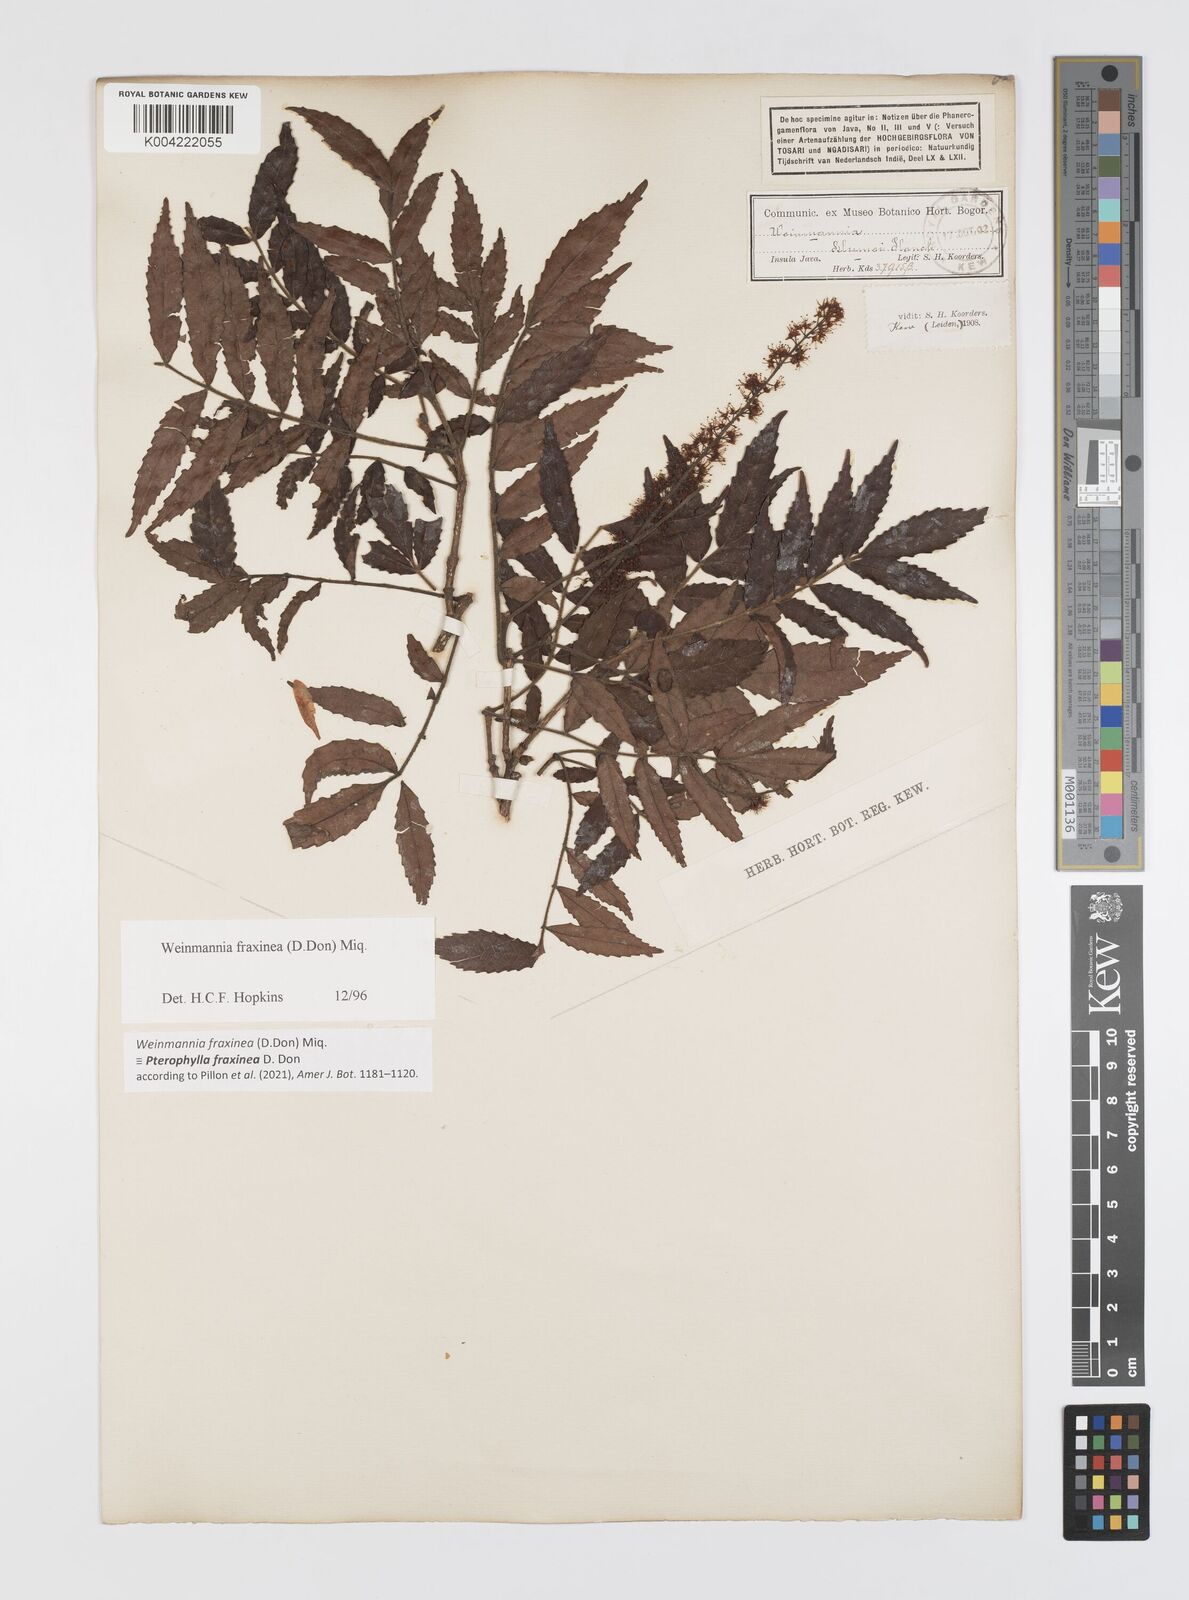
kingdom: Plantae
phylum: Tracheophyta
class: Magnoliopsida
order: Oxalidales
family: Cunoniaceae
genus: Pterophylla
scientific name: Pterophylla fraxinea
